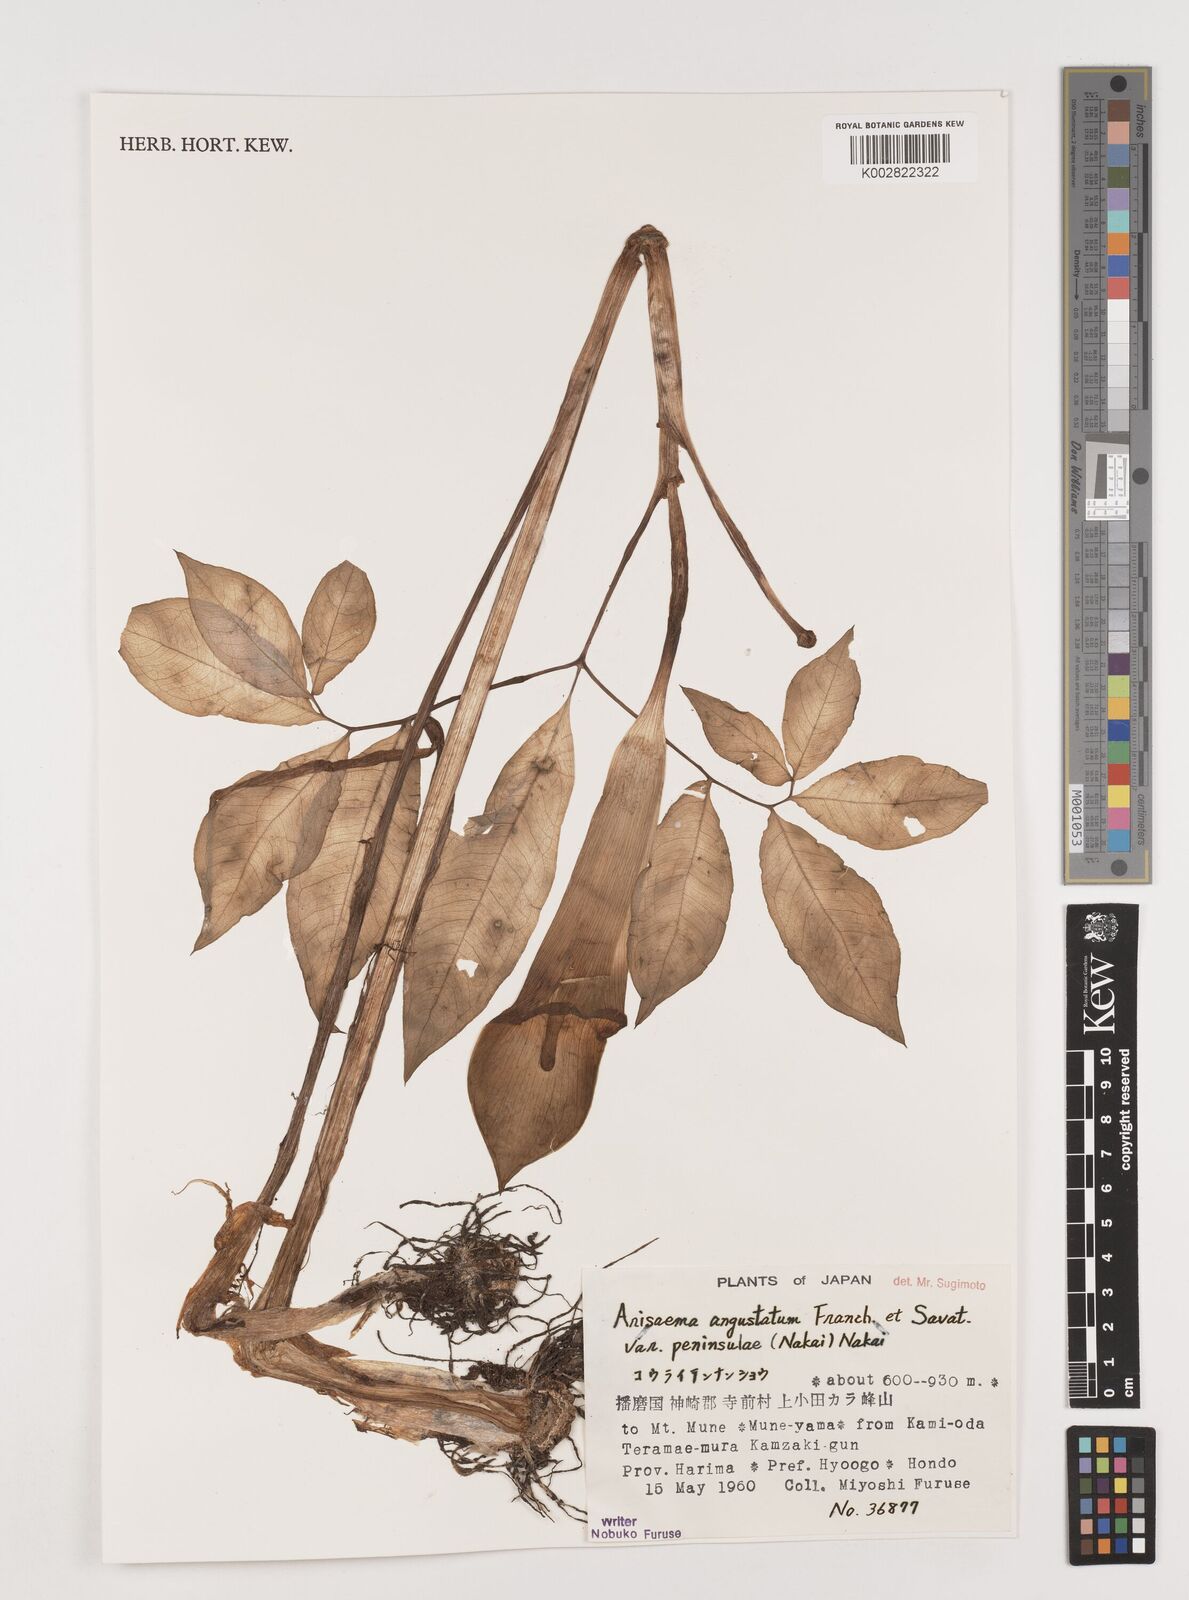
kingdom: Plantae
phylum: Tracheophyta
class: Liliopsida
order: Alismatales
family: Araceae
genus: Arisaema
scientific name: Arisaema angustatum
